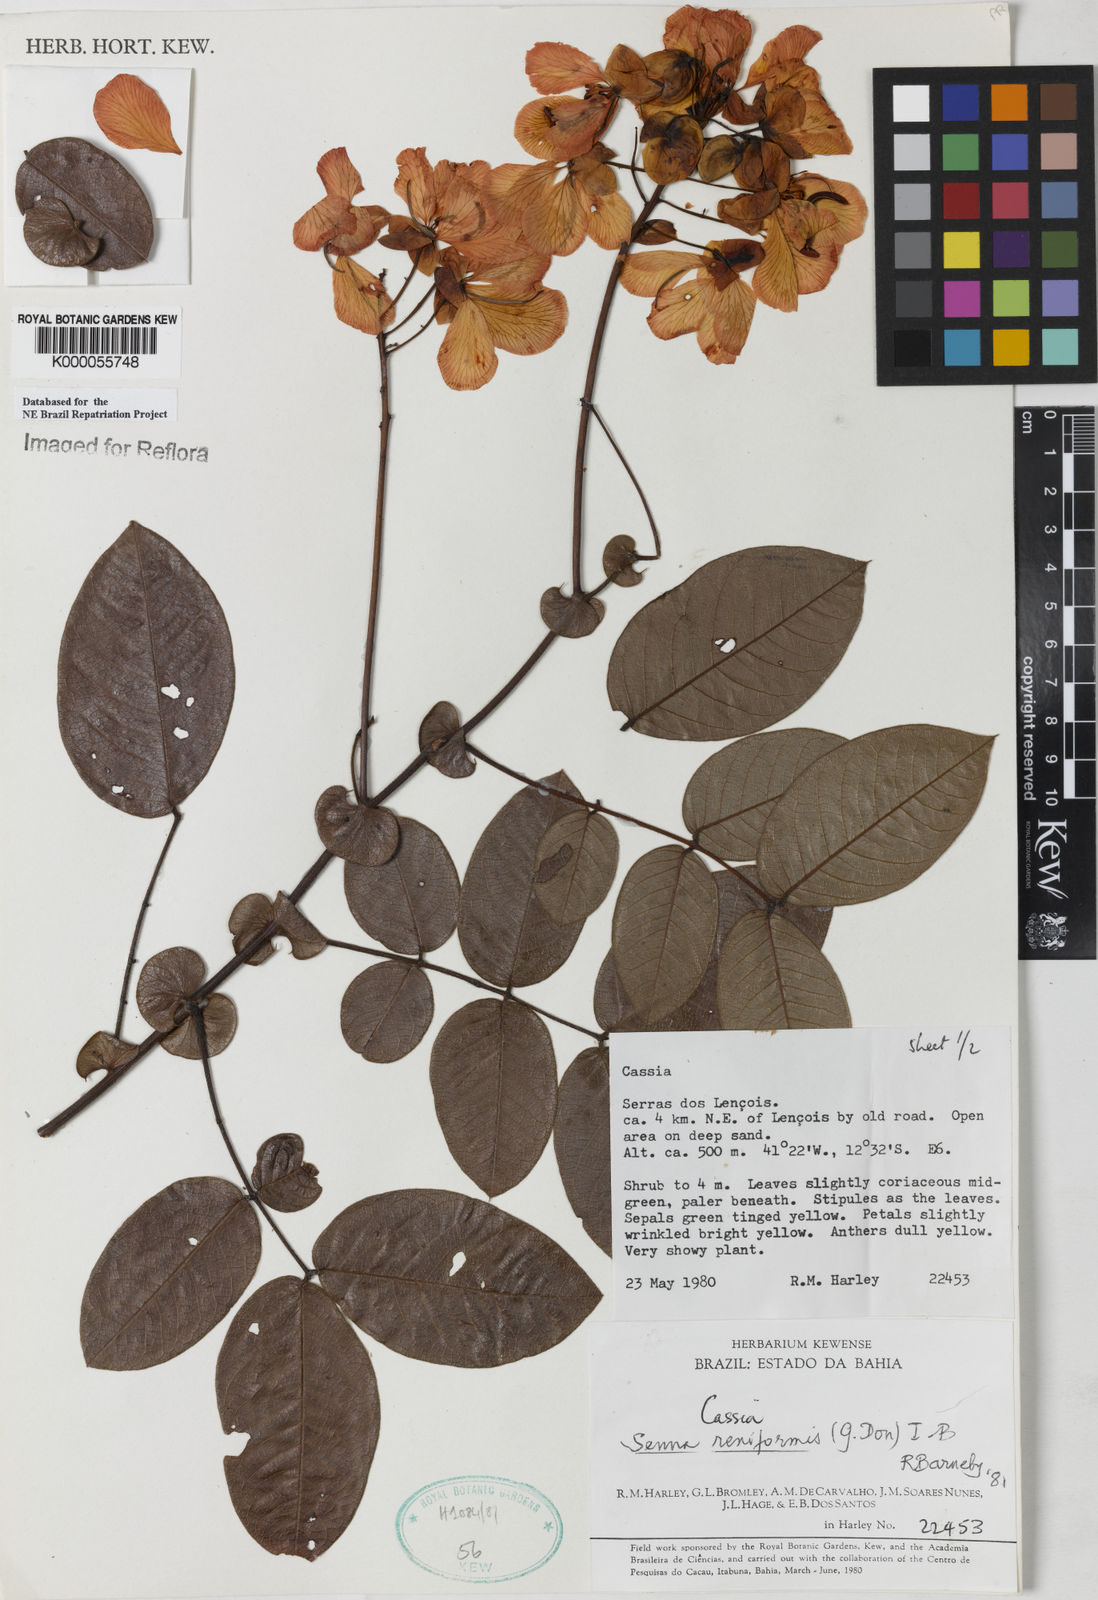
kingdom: Plantae
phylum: Tracheophyta
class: Magnoliopsida
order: Fabales
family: Fabaceae
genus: Senna
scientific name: Senna reniformis
